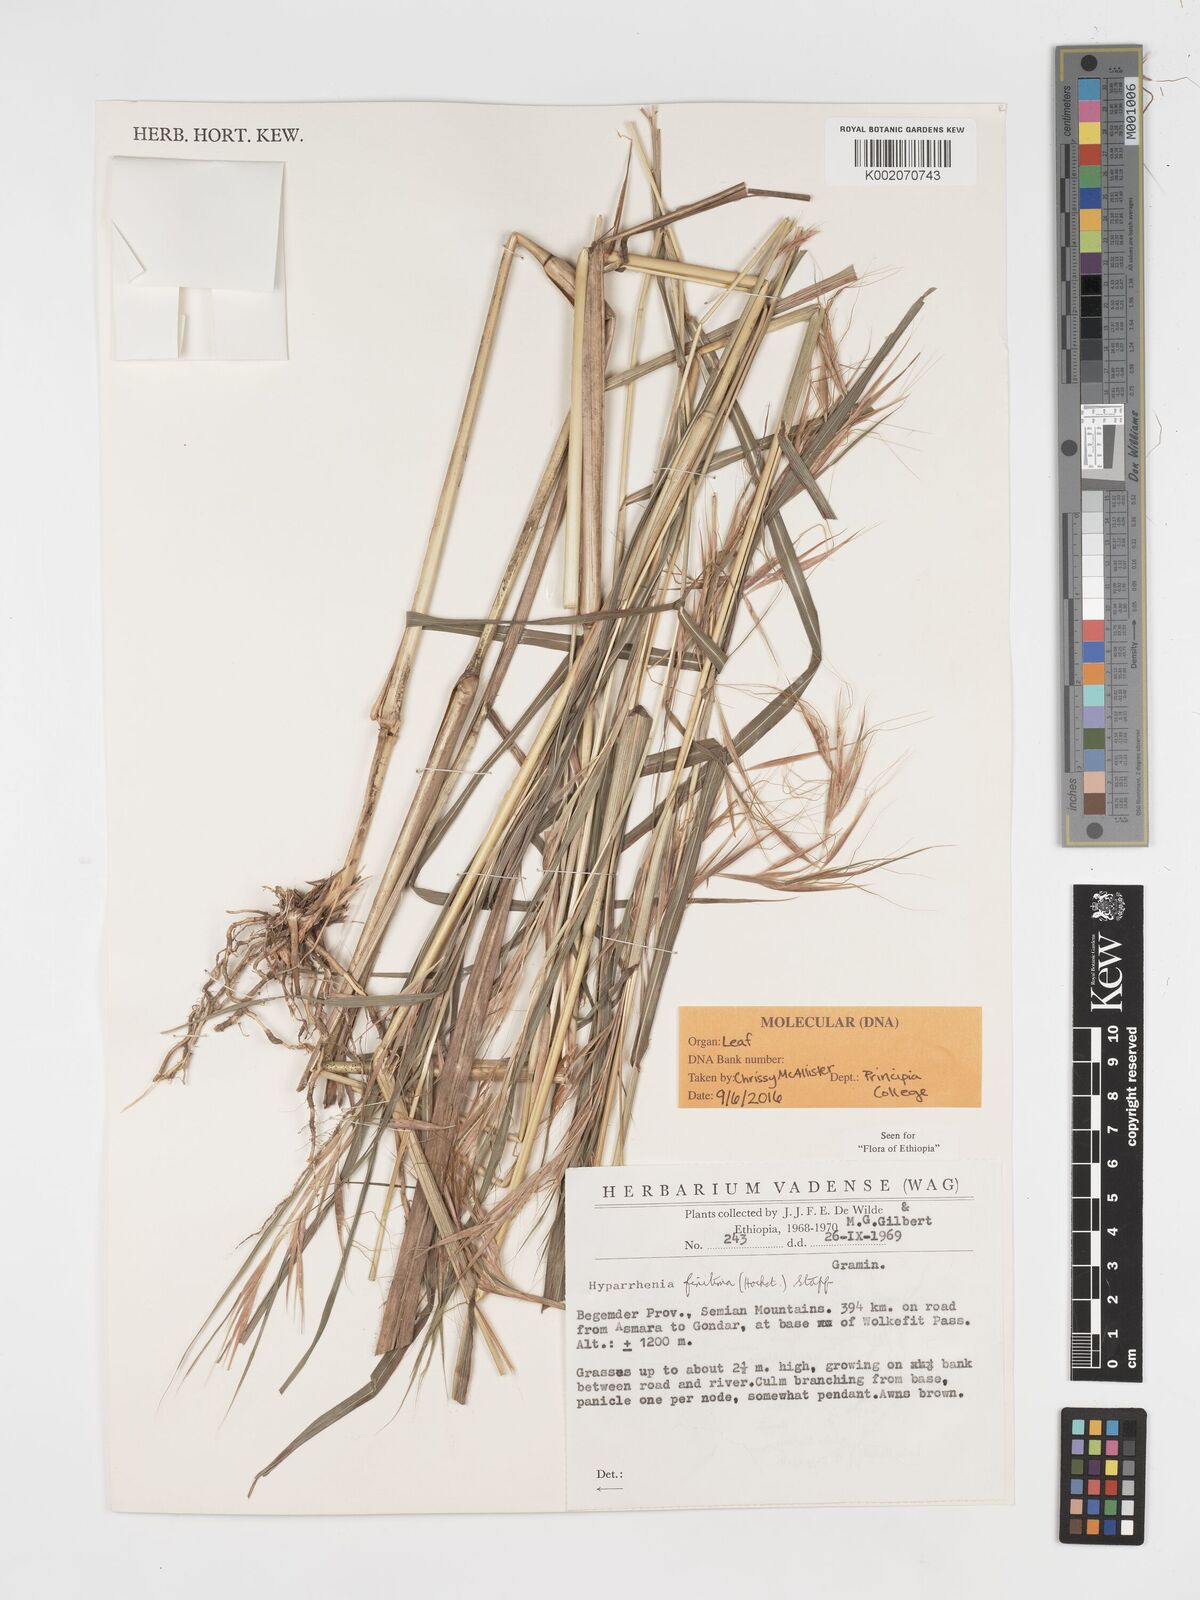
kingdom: Plantae
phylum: Tracheophyta
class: Liliopsida
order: Poales
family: Poaceae
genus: Hyparrhenia
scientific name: Hyparrhenia finitima
